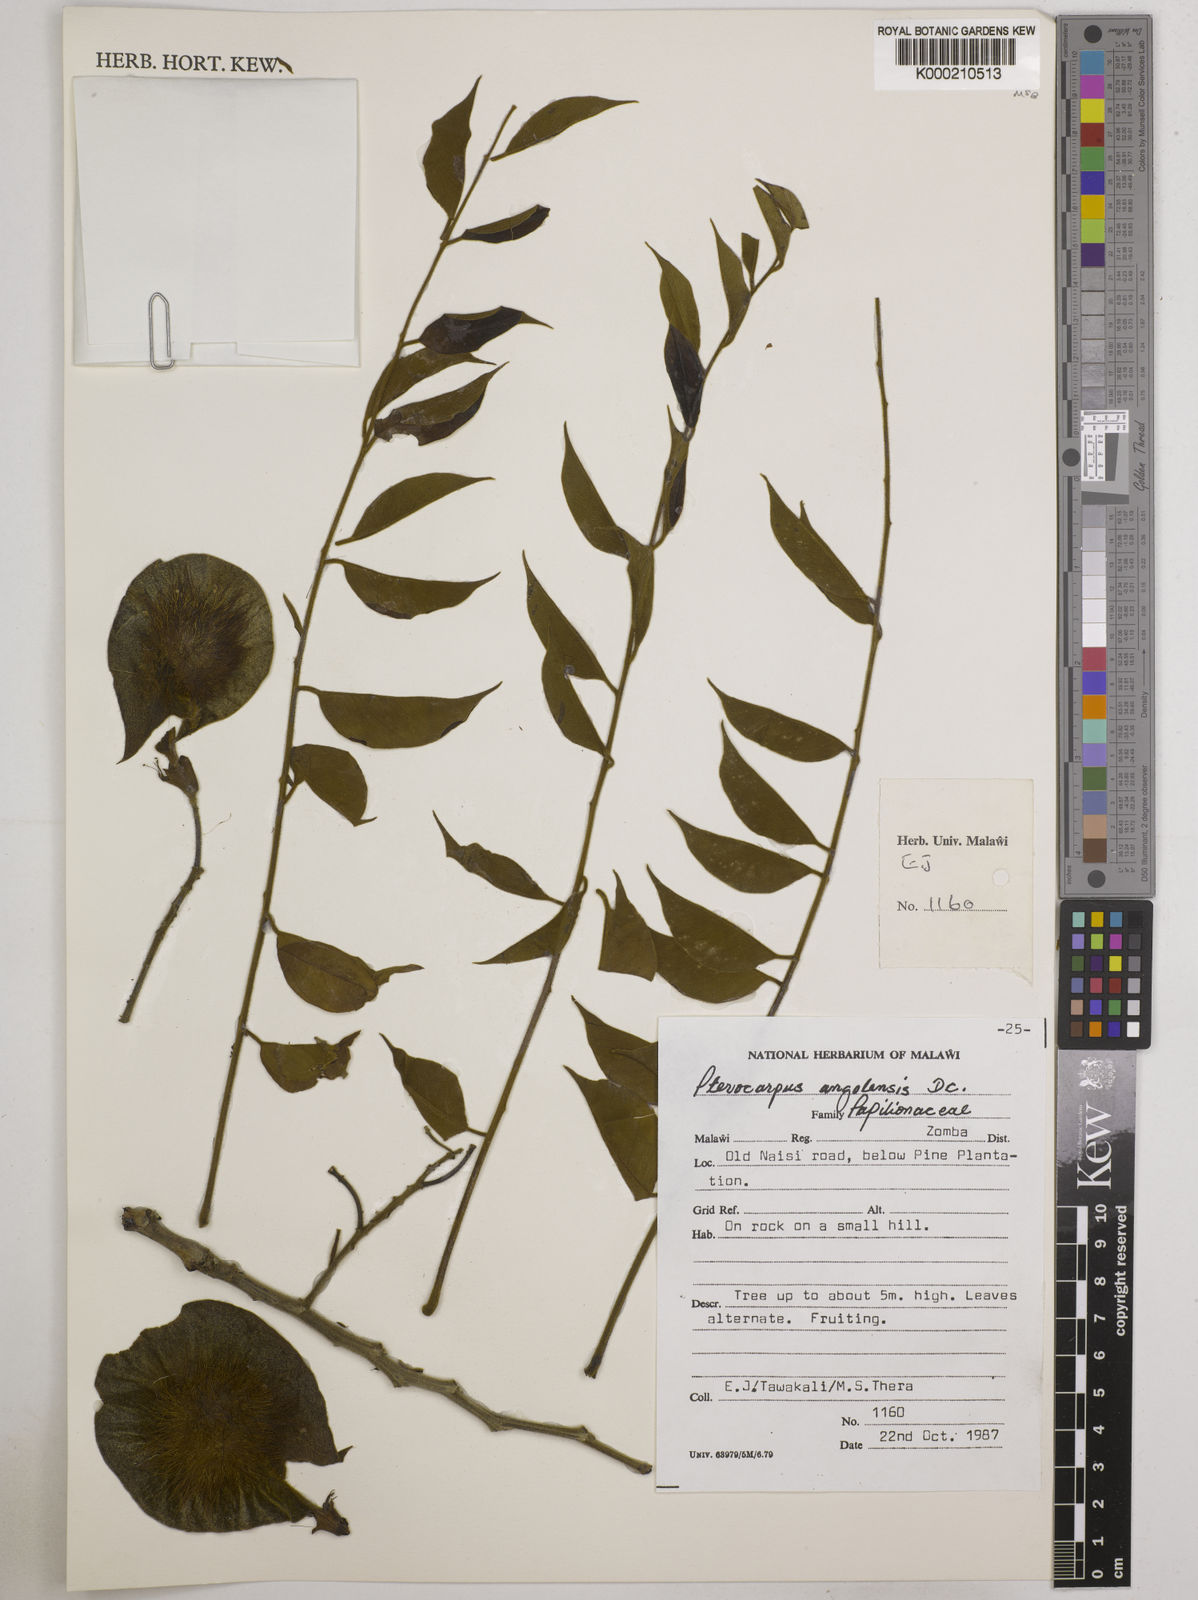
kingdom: Plantae
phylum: Tracheophyta
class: Magnoliopsida
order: Fabales
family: Fabaceae
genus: Pterocarpus
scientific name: Pterocarpus angolensis
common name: Bloodwood tree
